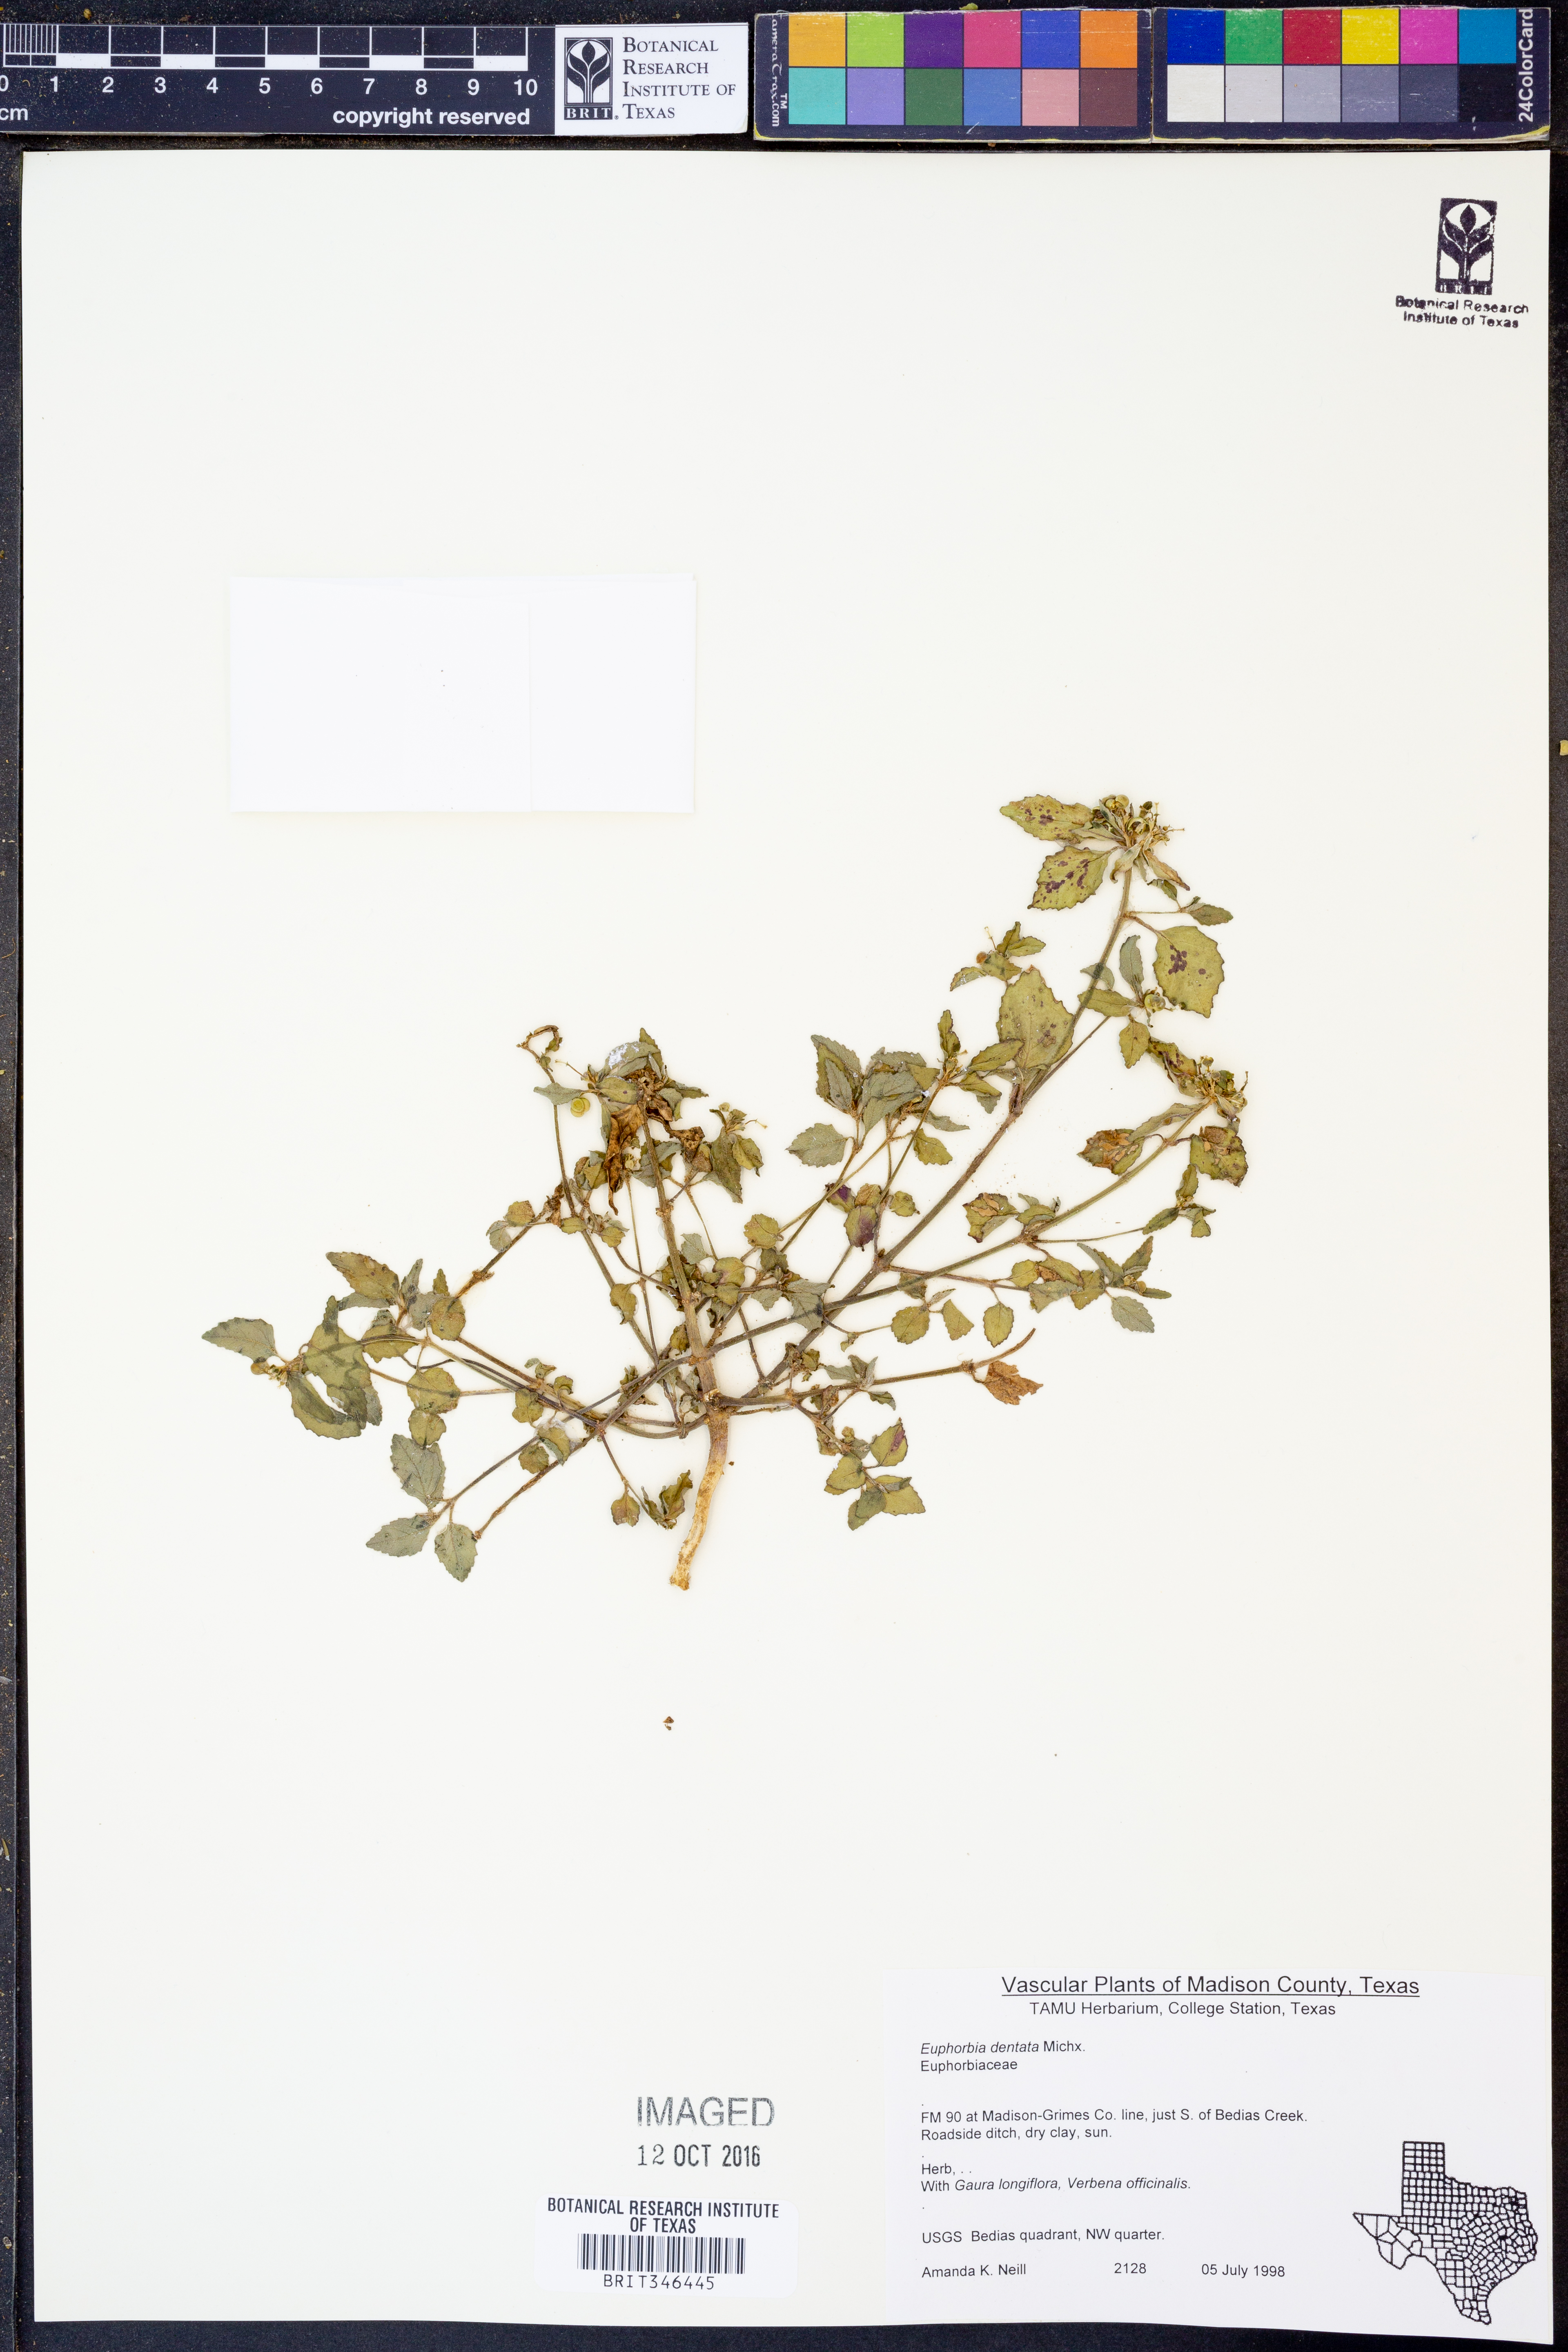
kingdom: Plantae
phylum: Tracheophyta
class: Magnoliopsida
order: Malpighiales
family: Euphorbiaceae
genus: Euphorbia
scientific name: Euphorbia dentata
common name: Dentate spurge
